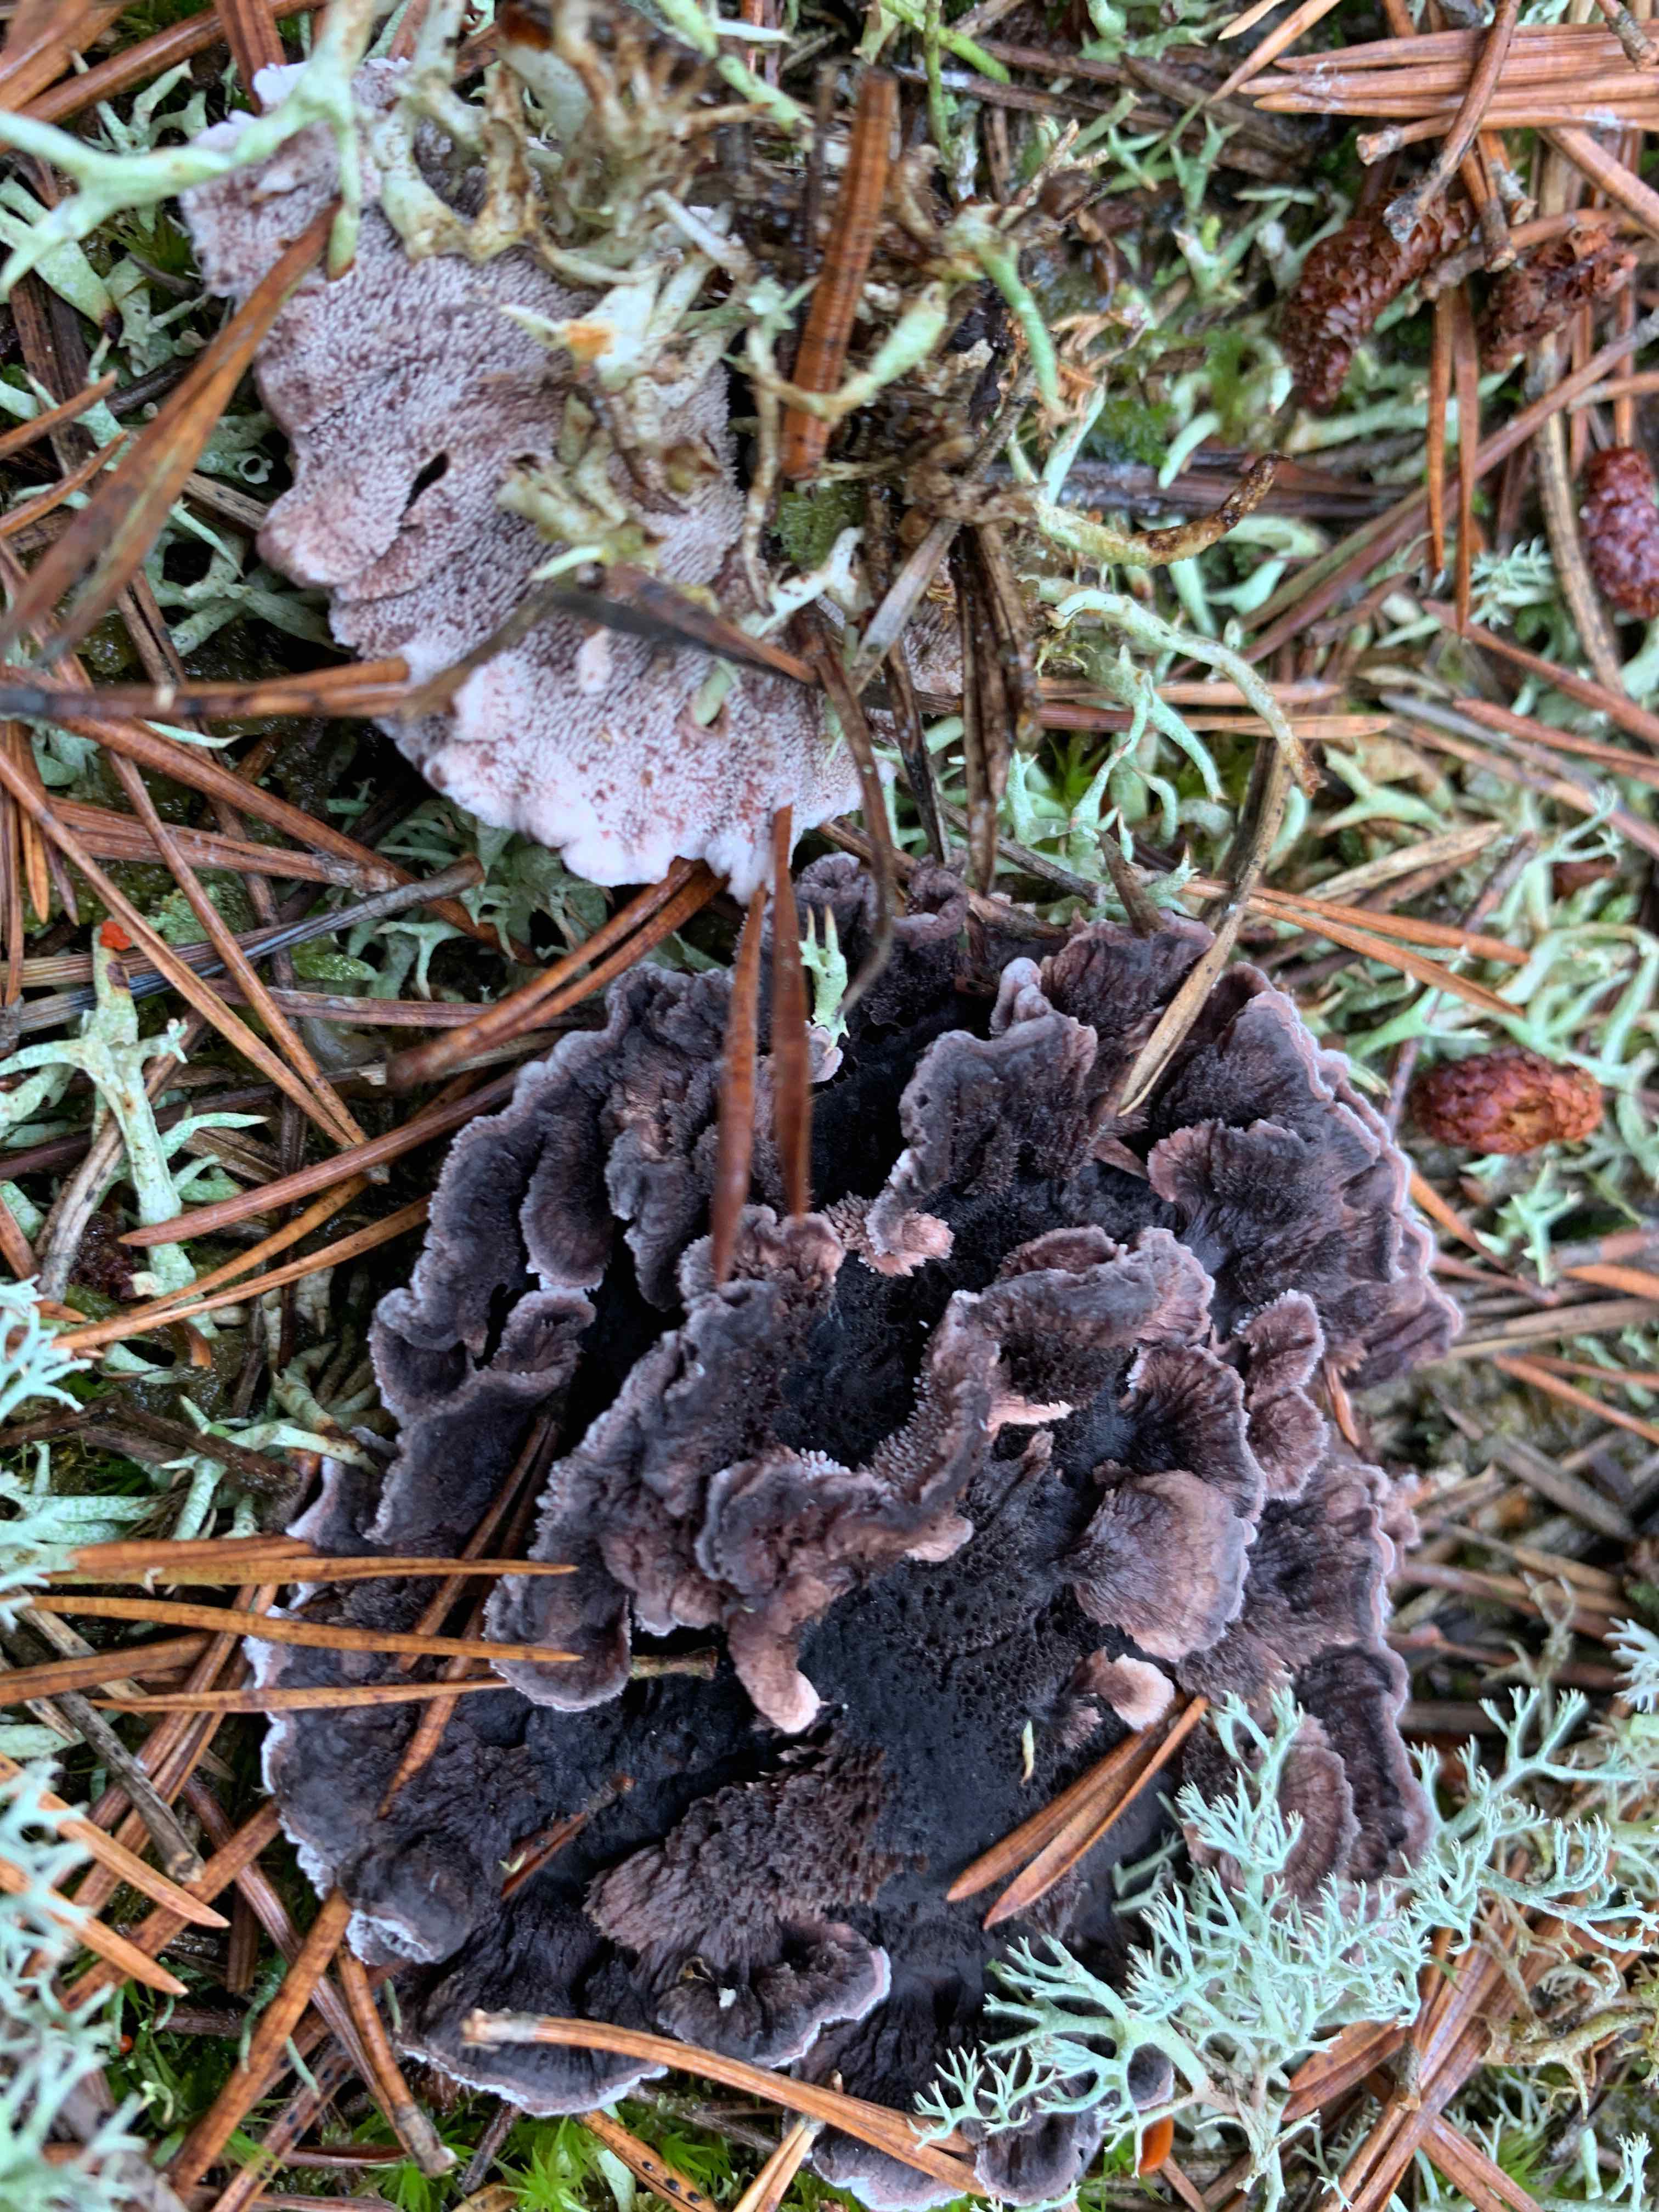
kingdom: Fungi
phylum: Basidiomycota
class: Agaricomycetes
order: Thelephorales
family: Thelephoraceae
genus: Phellodon
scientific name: Phellodon tomentosus
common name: vellugtende duftpigsvamp
